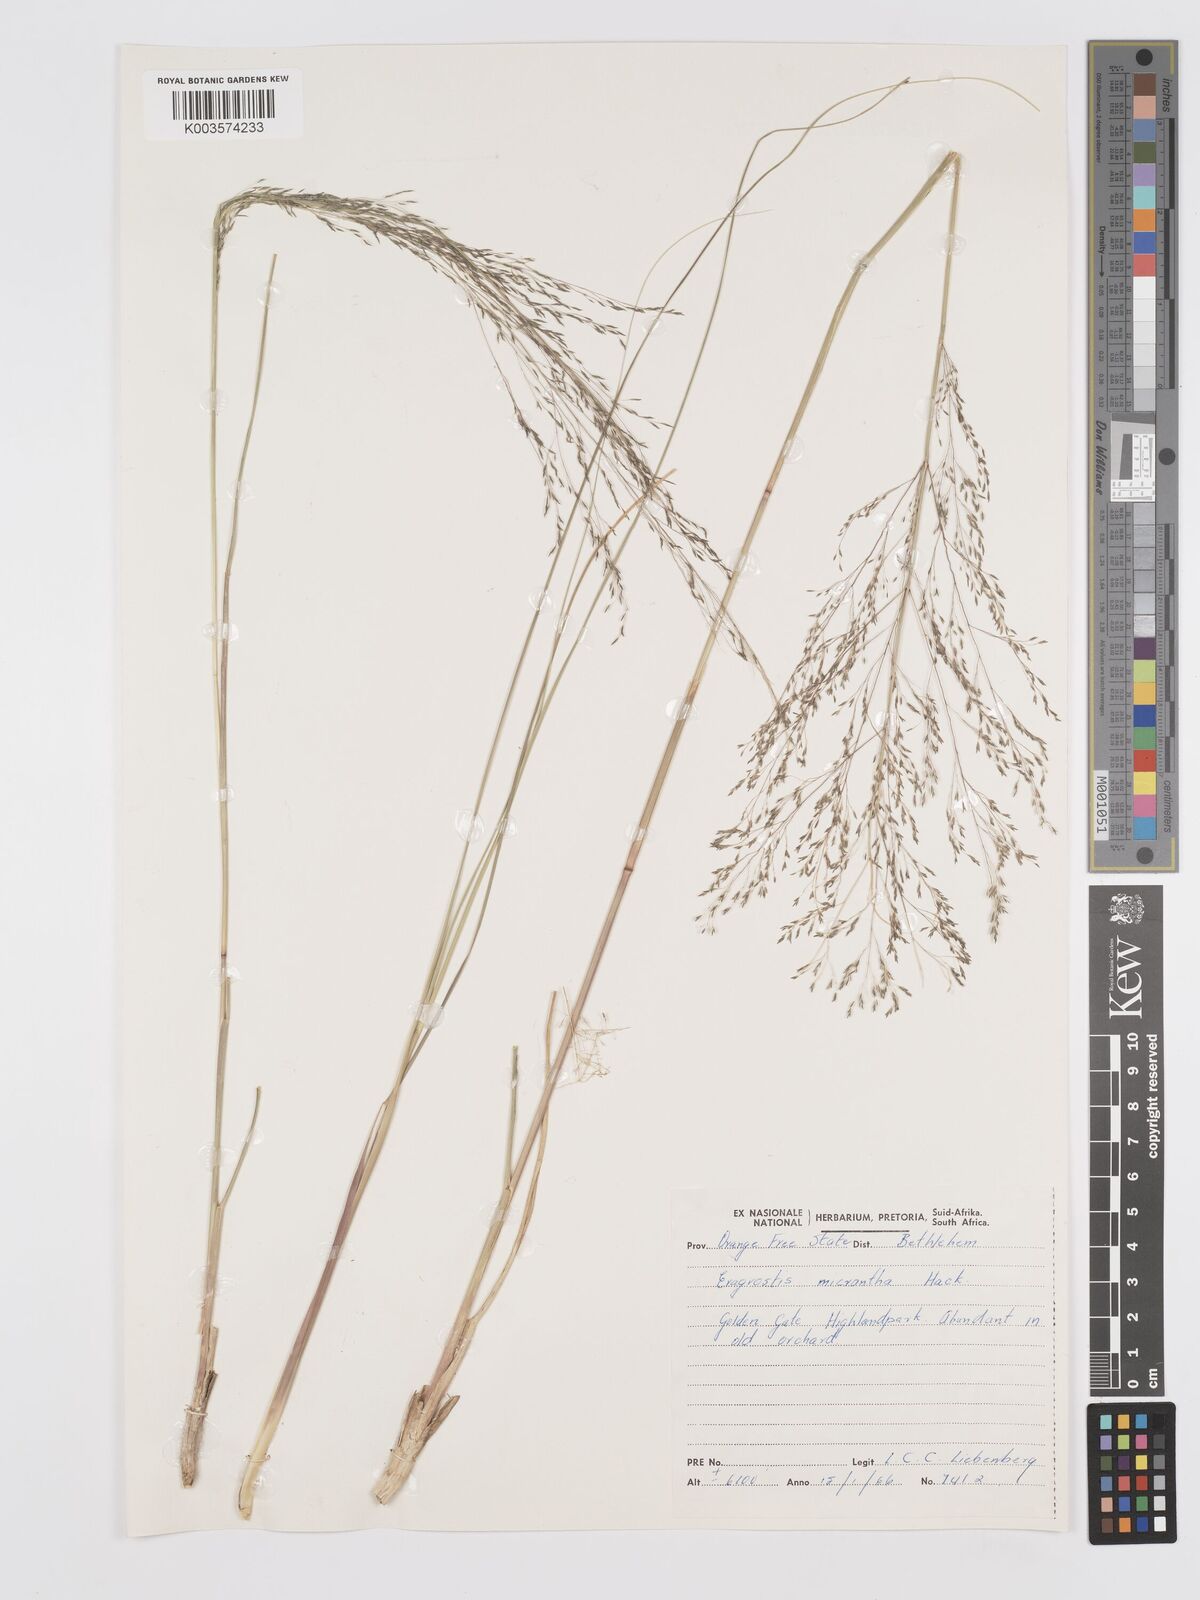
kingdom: Plantae
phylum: Tracheophyta
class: Liliopsida
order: Poales
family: Poaceae
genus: Eragrostis
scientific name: Eragrostis micrantha
